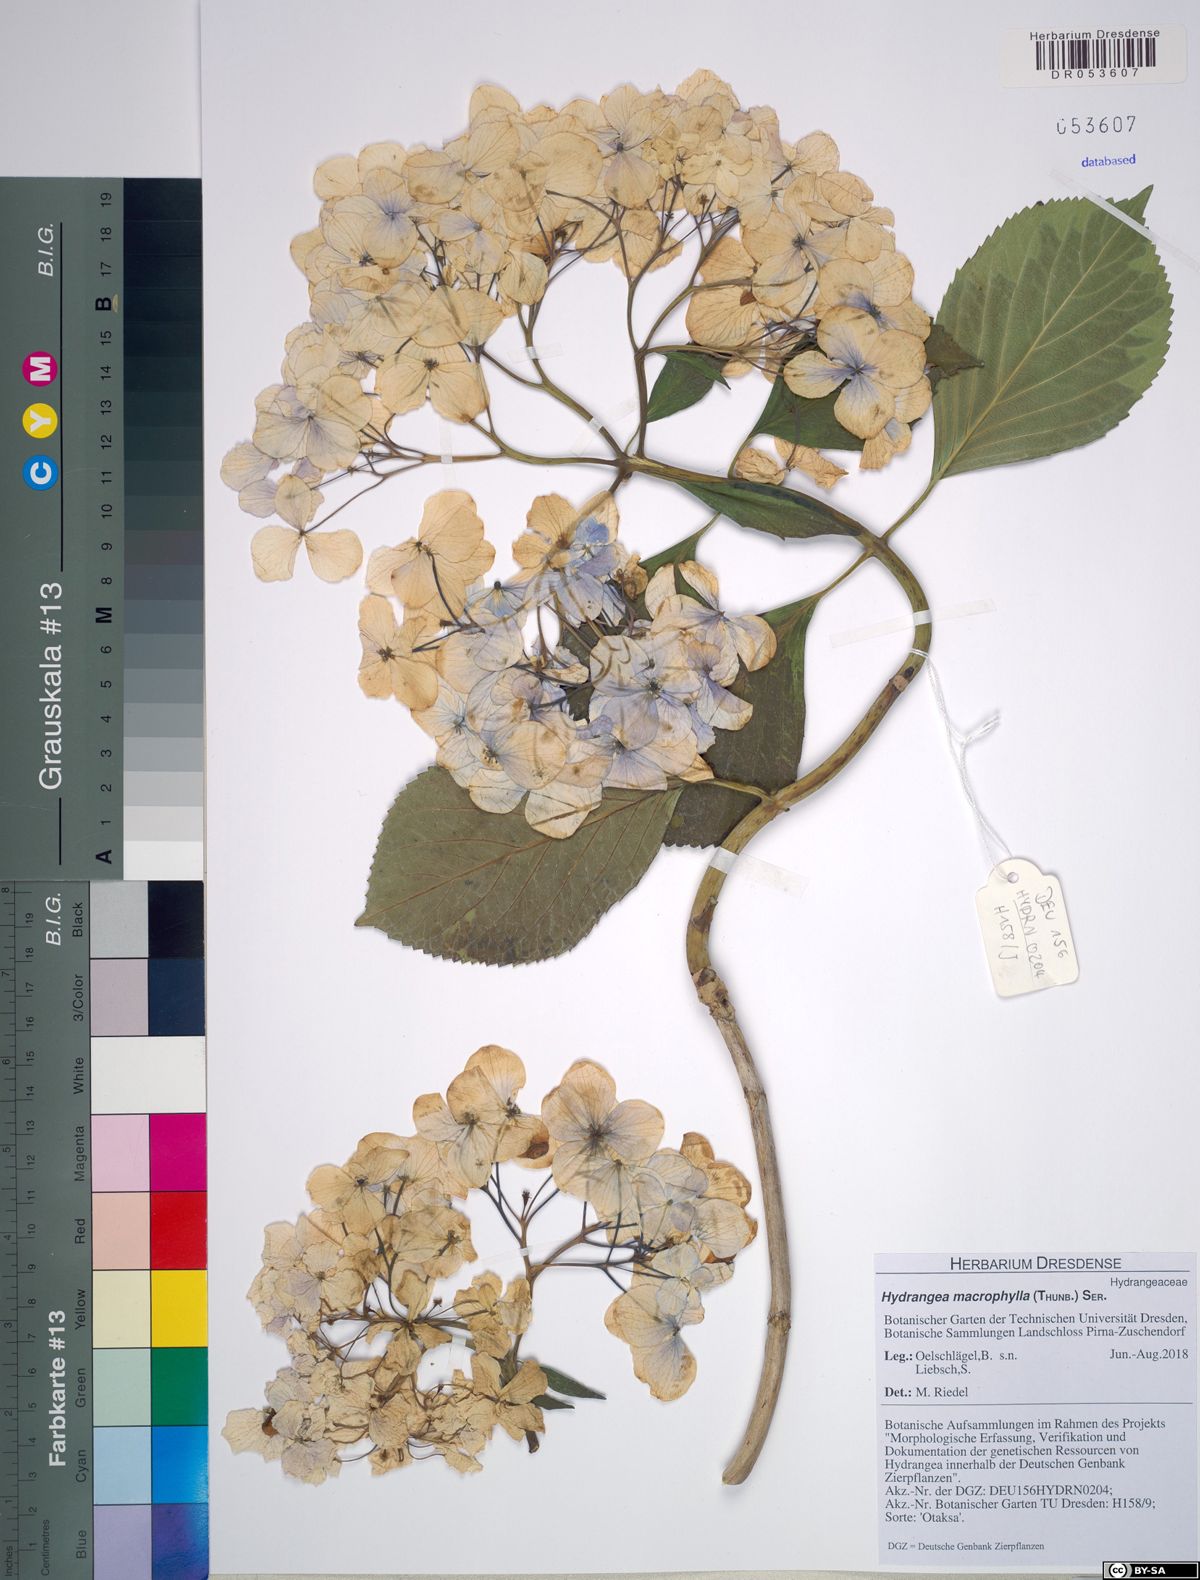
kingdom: Plantae
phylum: Tracheophyta
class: Magnoliopsida
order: Cornales
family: Hydrangeaceae
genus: Hydrangea
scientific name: Hydrangea macrophylla
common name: Hydrangea
